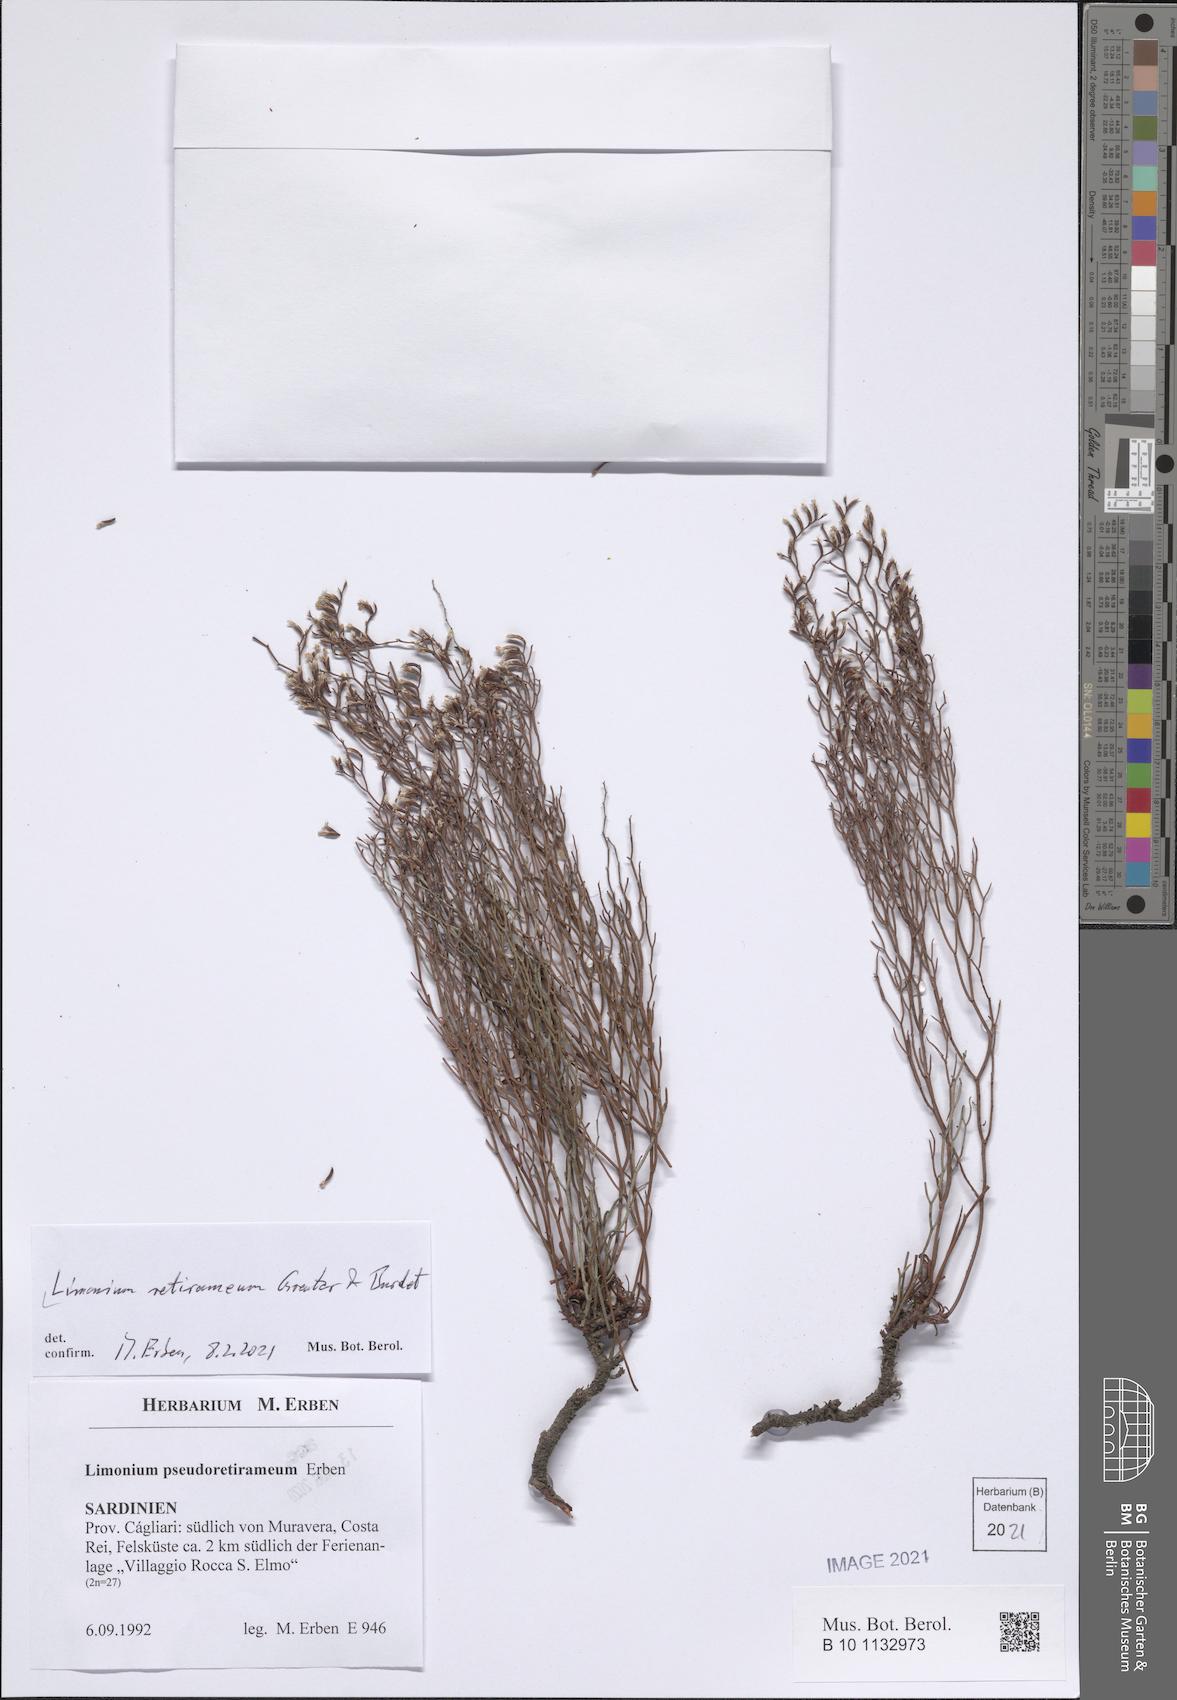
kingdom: Plantae
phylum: Tracheophyta
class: Magnoliopsida
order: Caryophyllales
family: Plumbaginaceae
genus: Limonium
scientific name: Limonium retirameum
